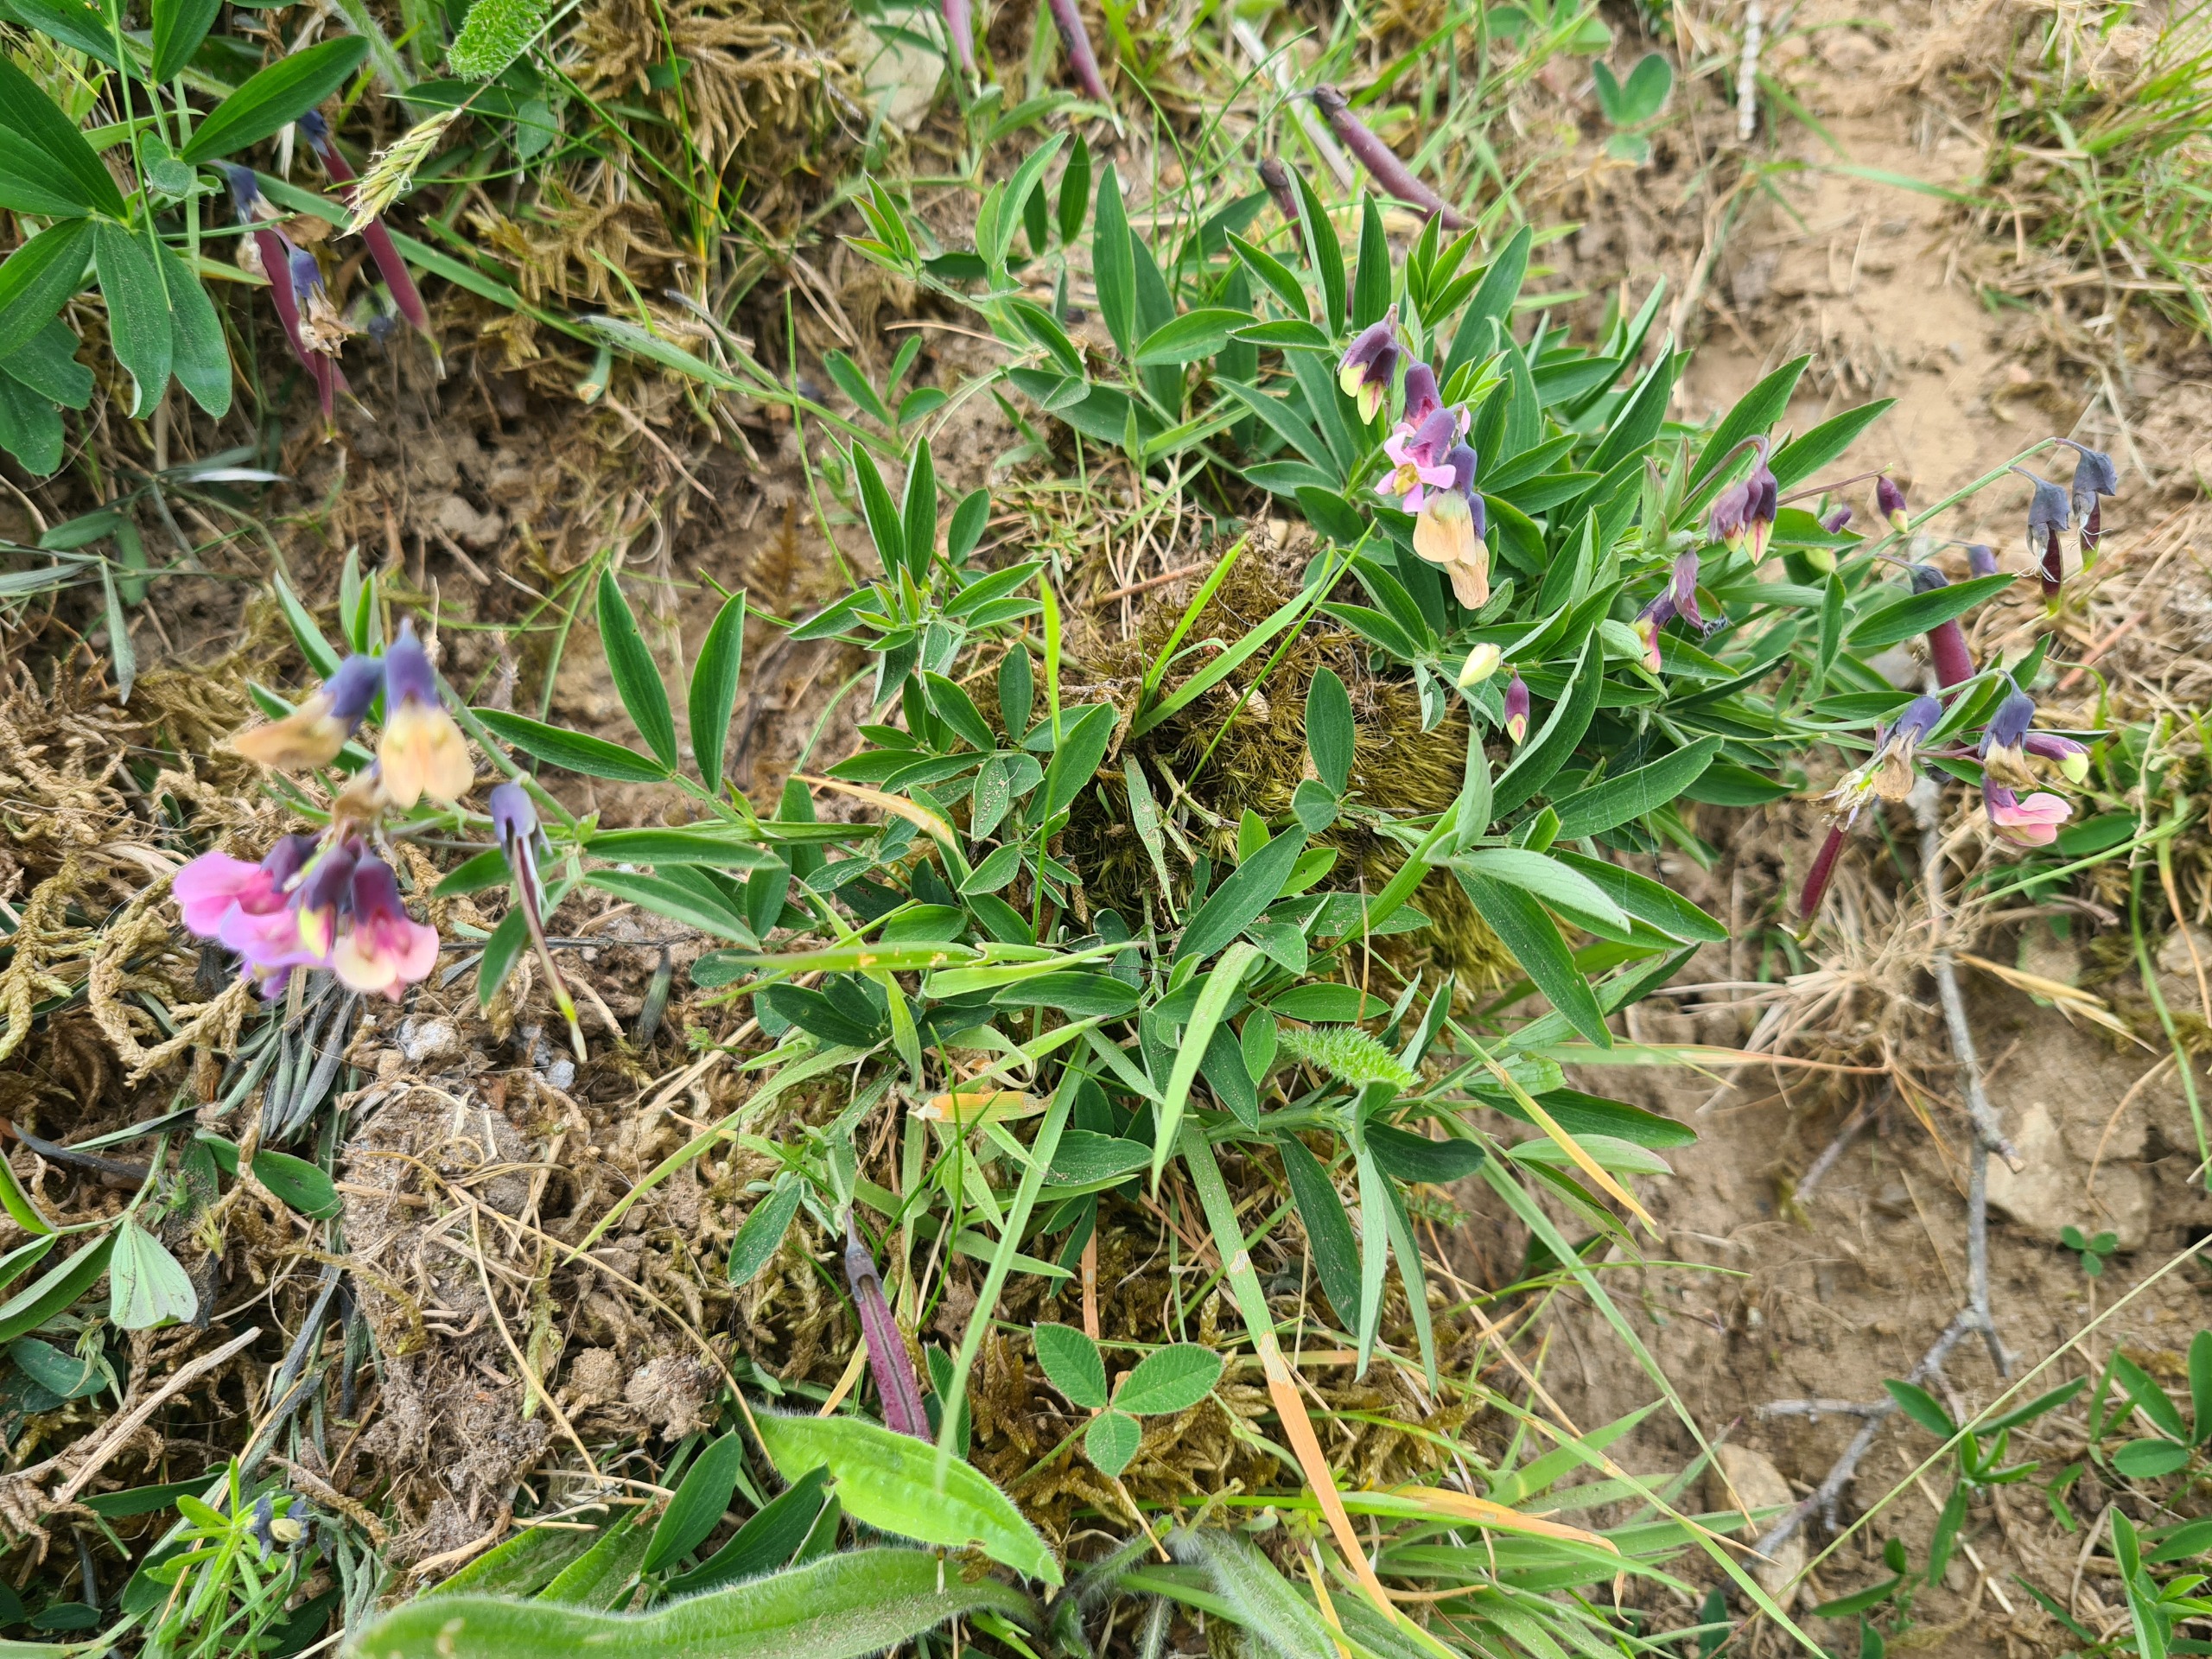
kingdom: Plantae
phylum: Tracheophyta
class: Magnoliopsida
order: Fabales
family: Fabaceae
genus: Lathyrus
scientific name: Lathyrus linifolius
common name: Krat-fladbælg
